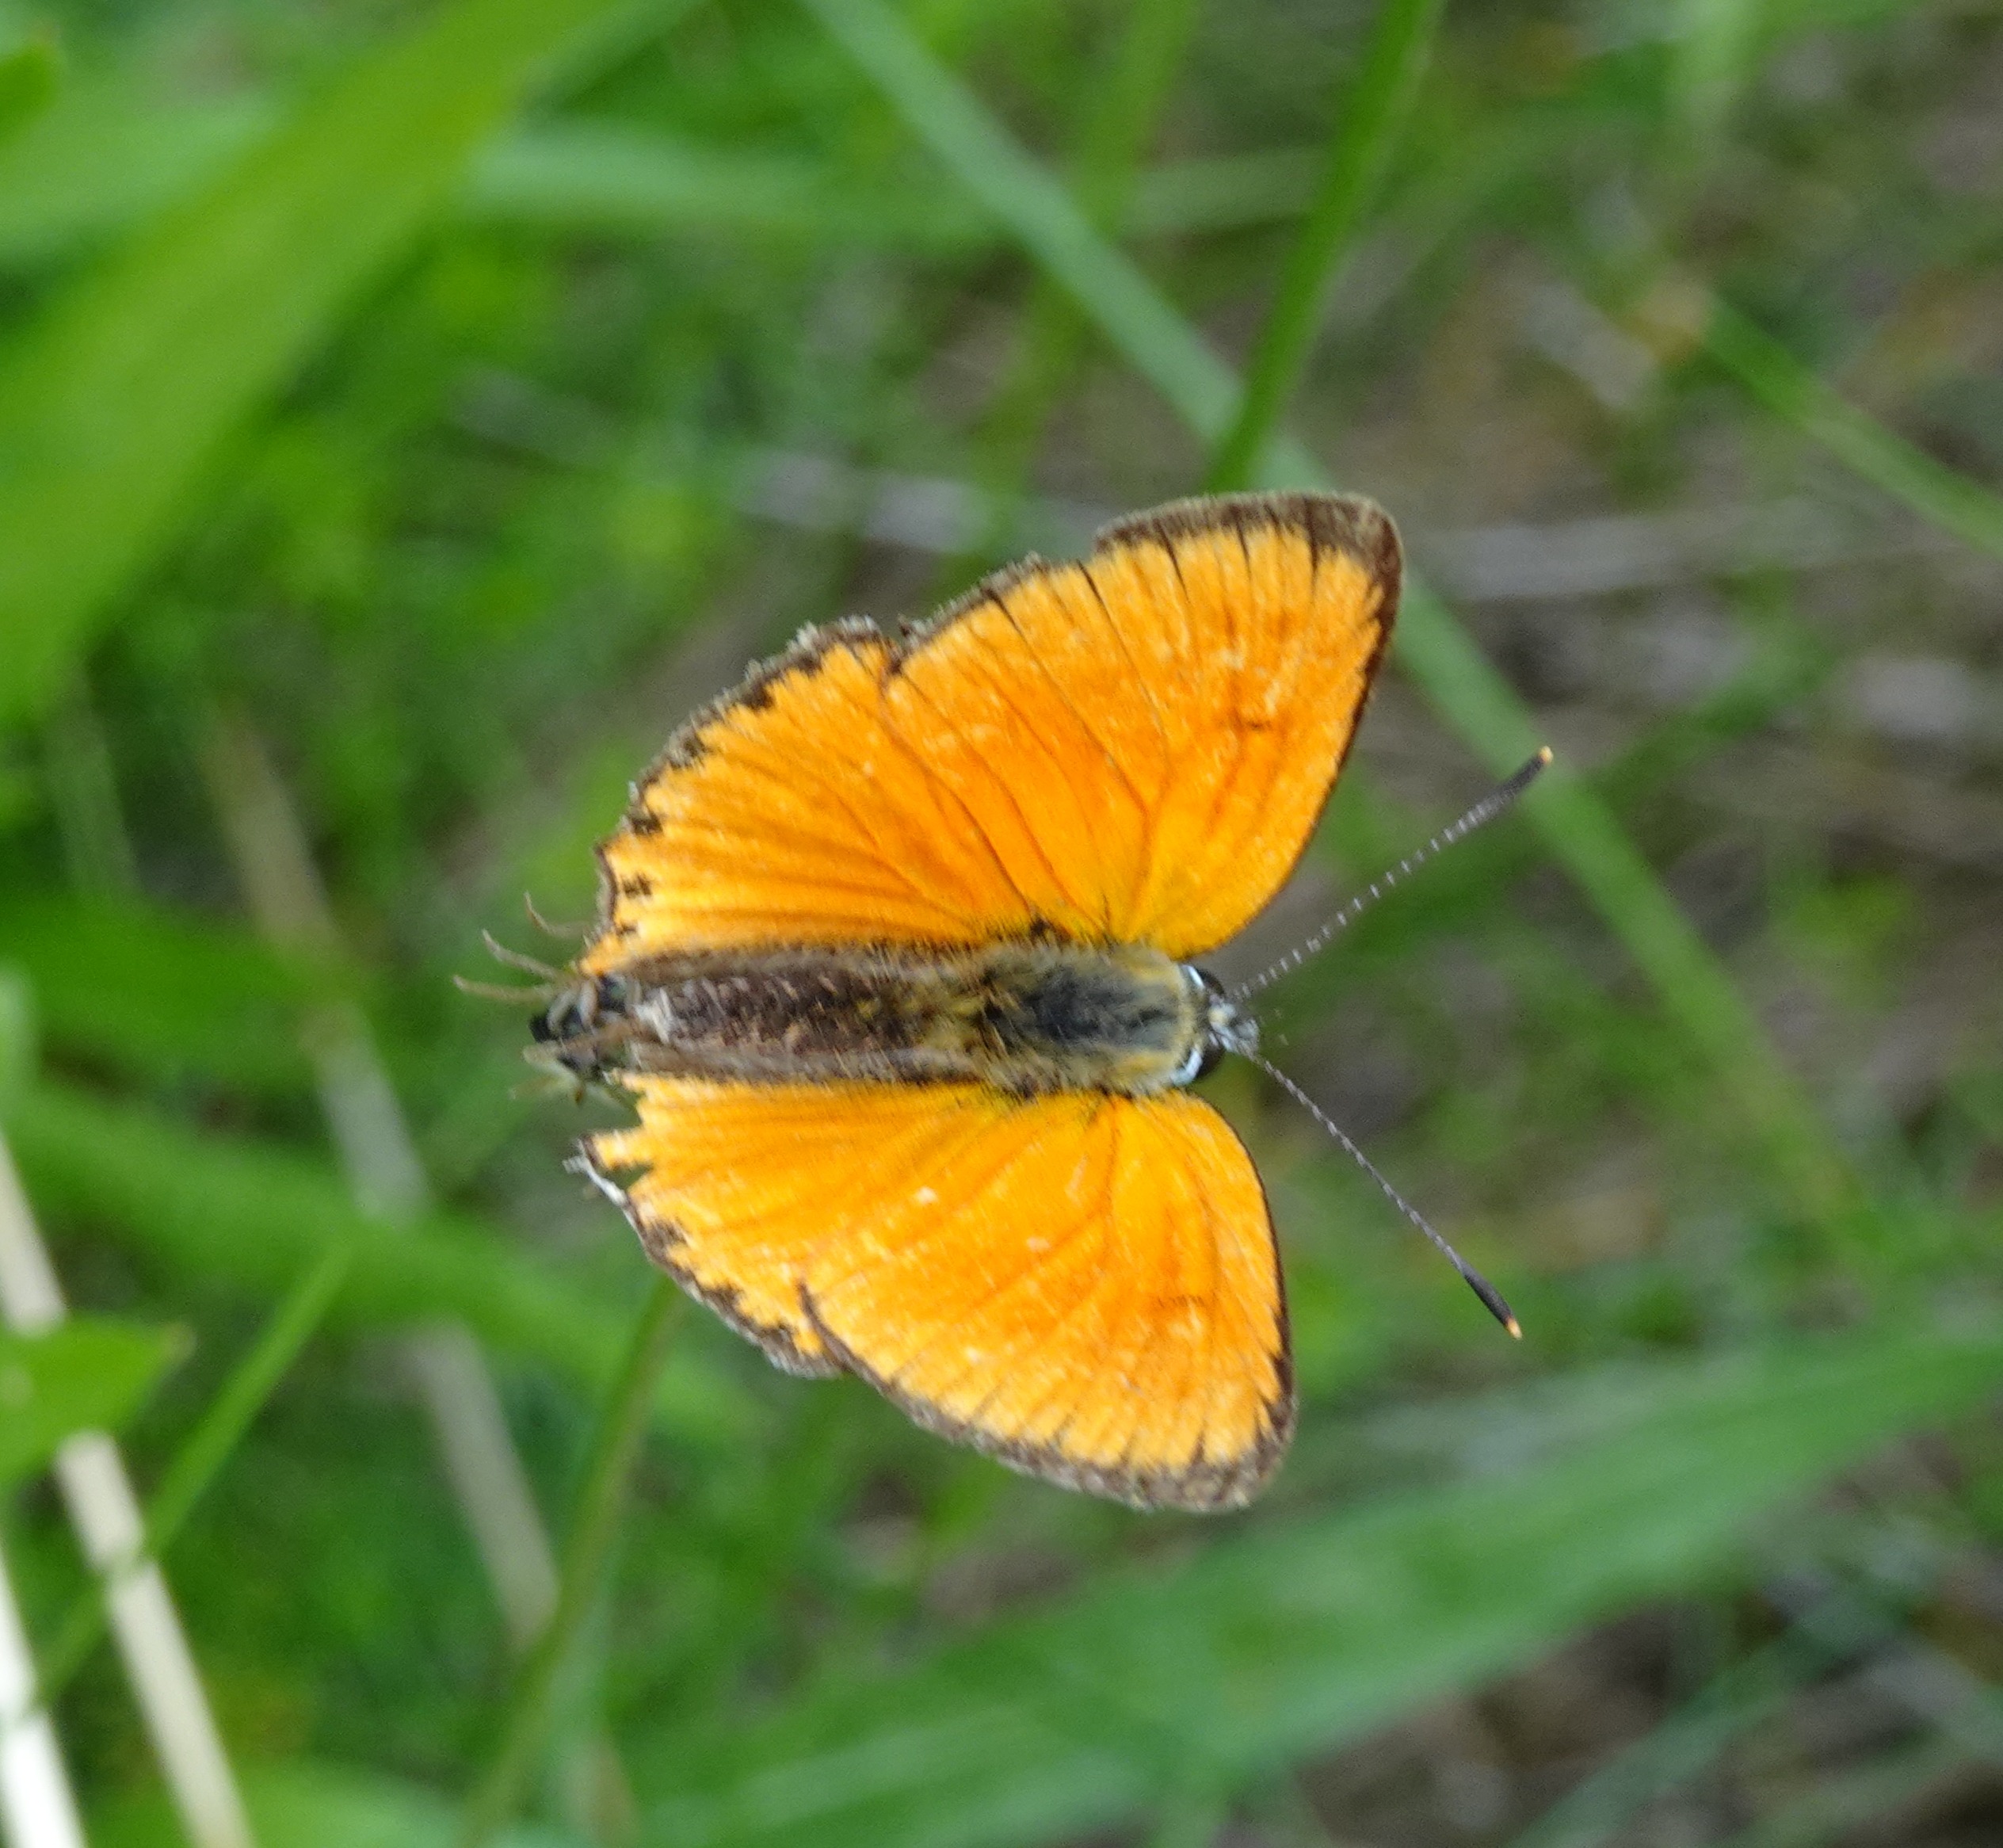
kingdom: Animalia
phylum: Arthropoda
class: Insecta
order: Lepidoptera
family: Lycaenidae
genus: Lycaena
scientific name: Lycaena virgaureae
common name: Dukatsommerfugl
